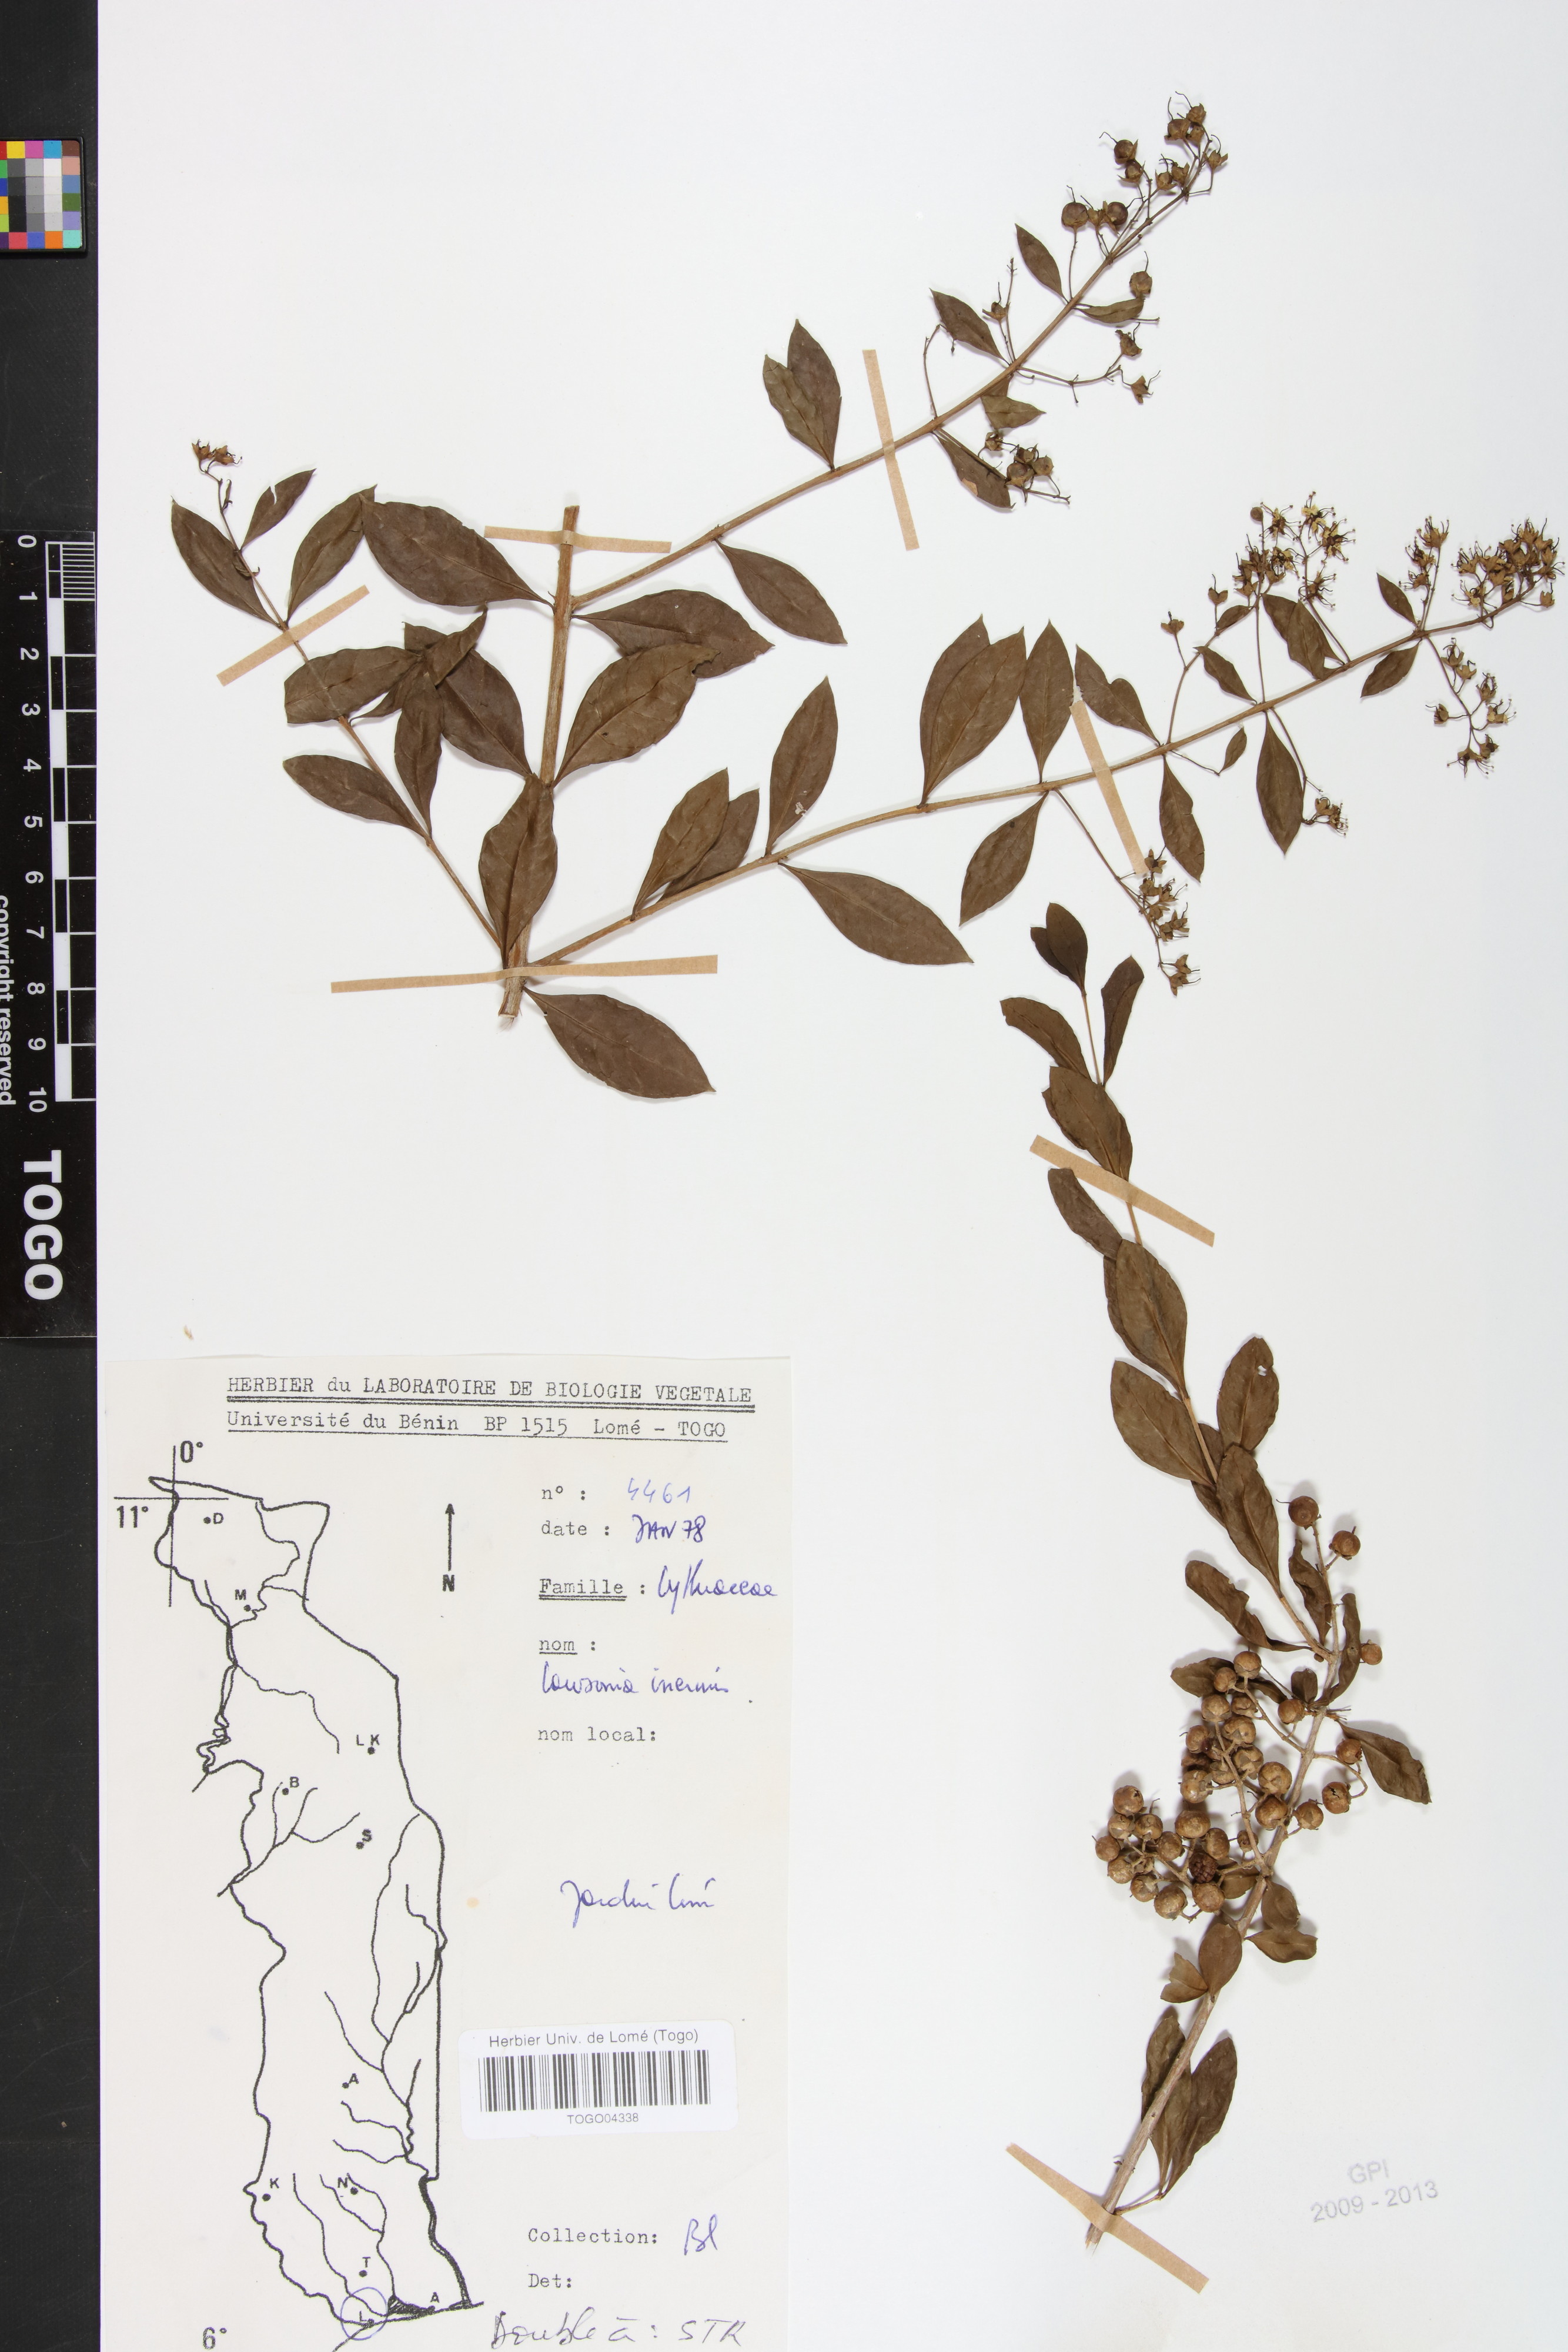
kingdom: Plantae
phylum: Tracheophyta
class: Magnoliopsida
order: Myrtales
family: Lythraceae
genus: Lawsonia
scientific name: Lawsonia inermis
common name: Henna
